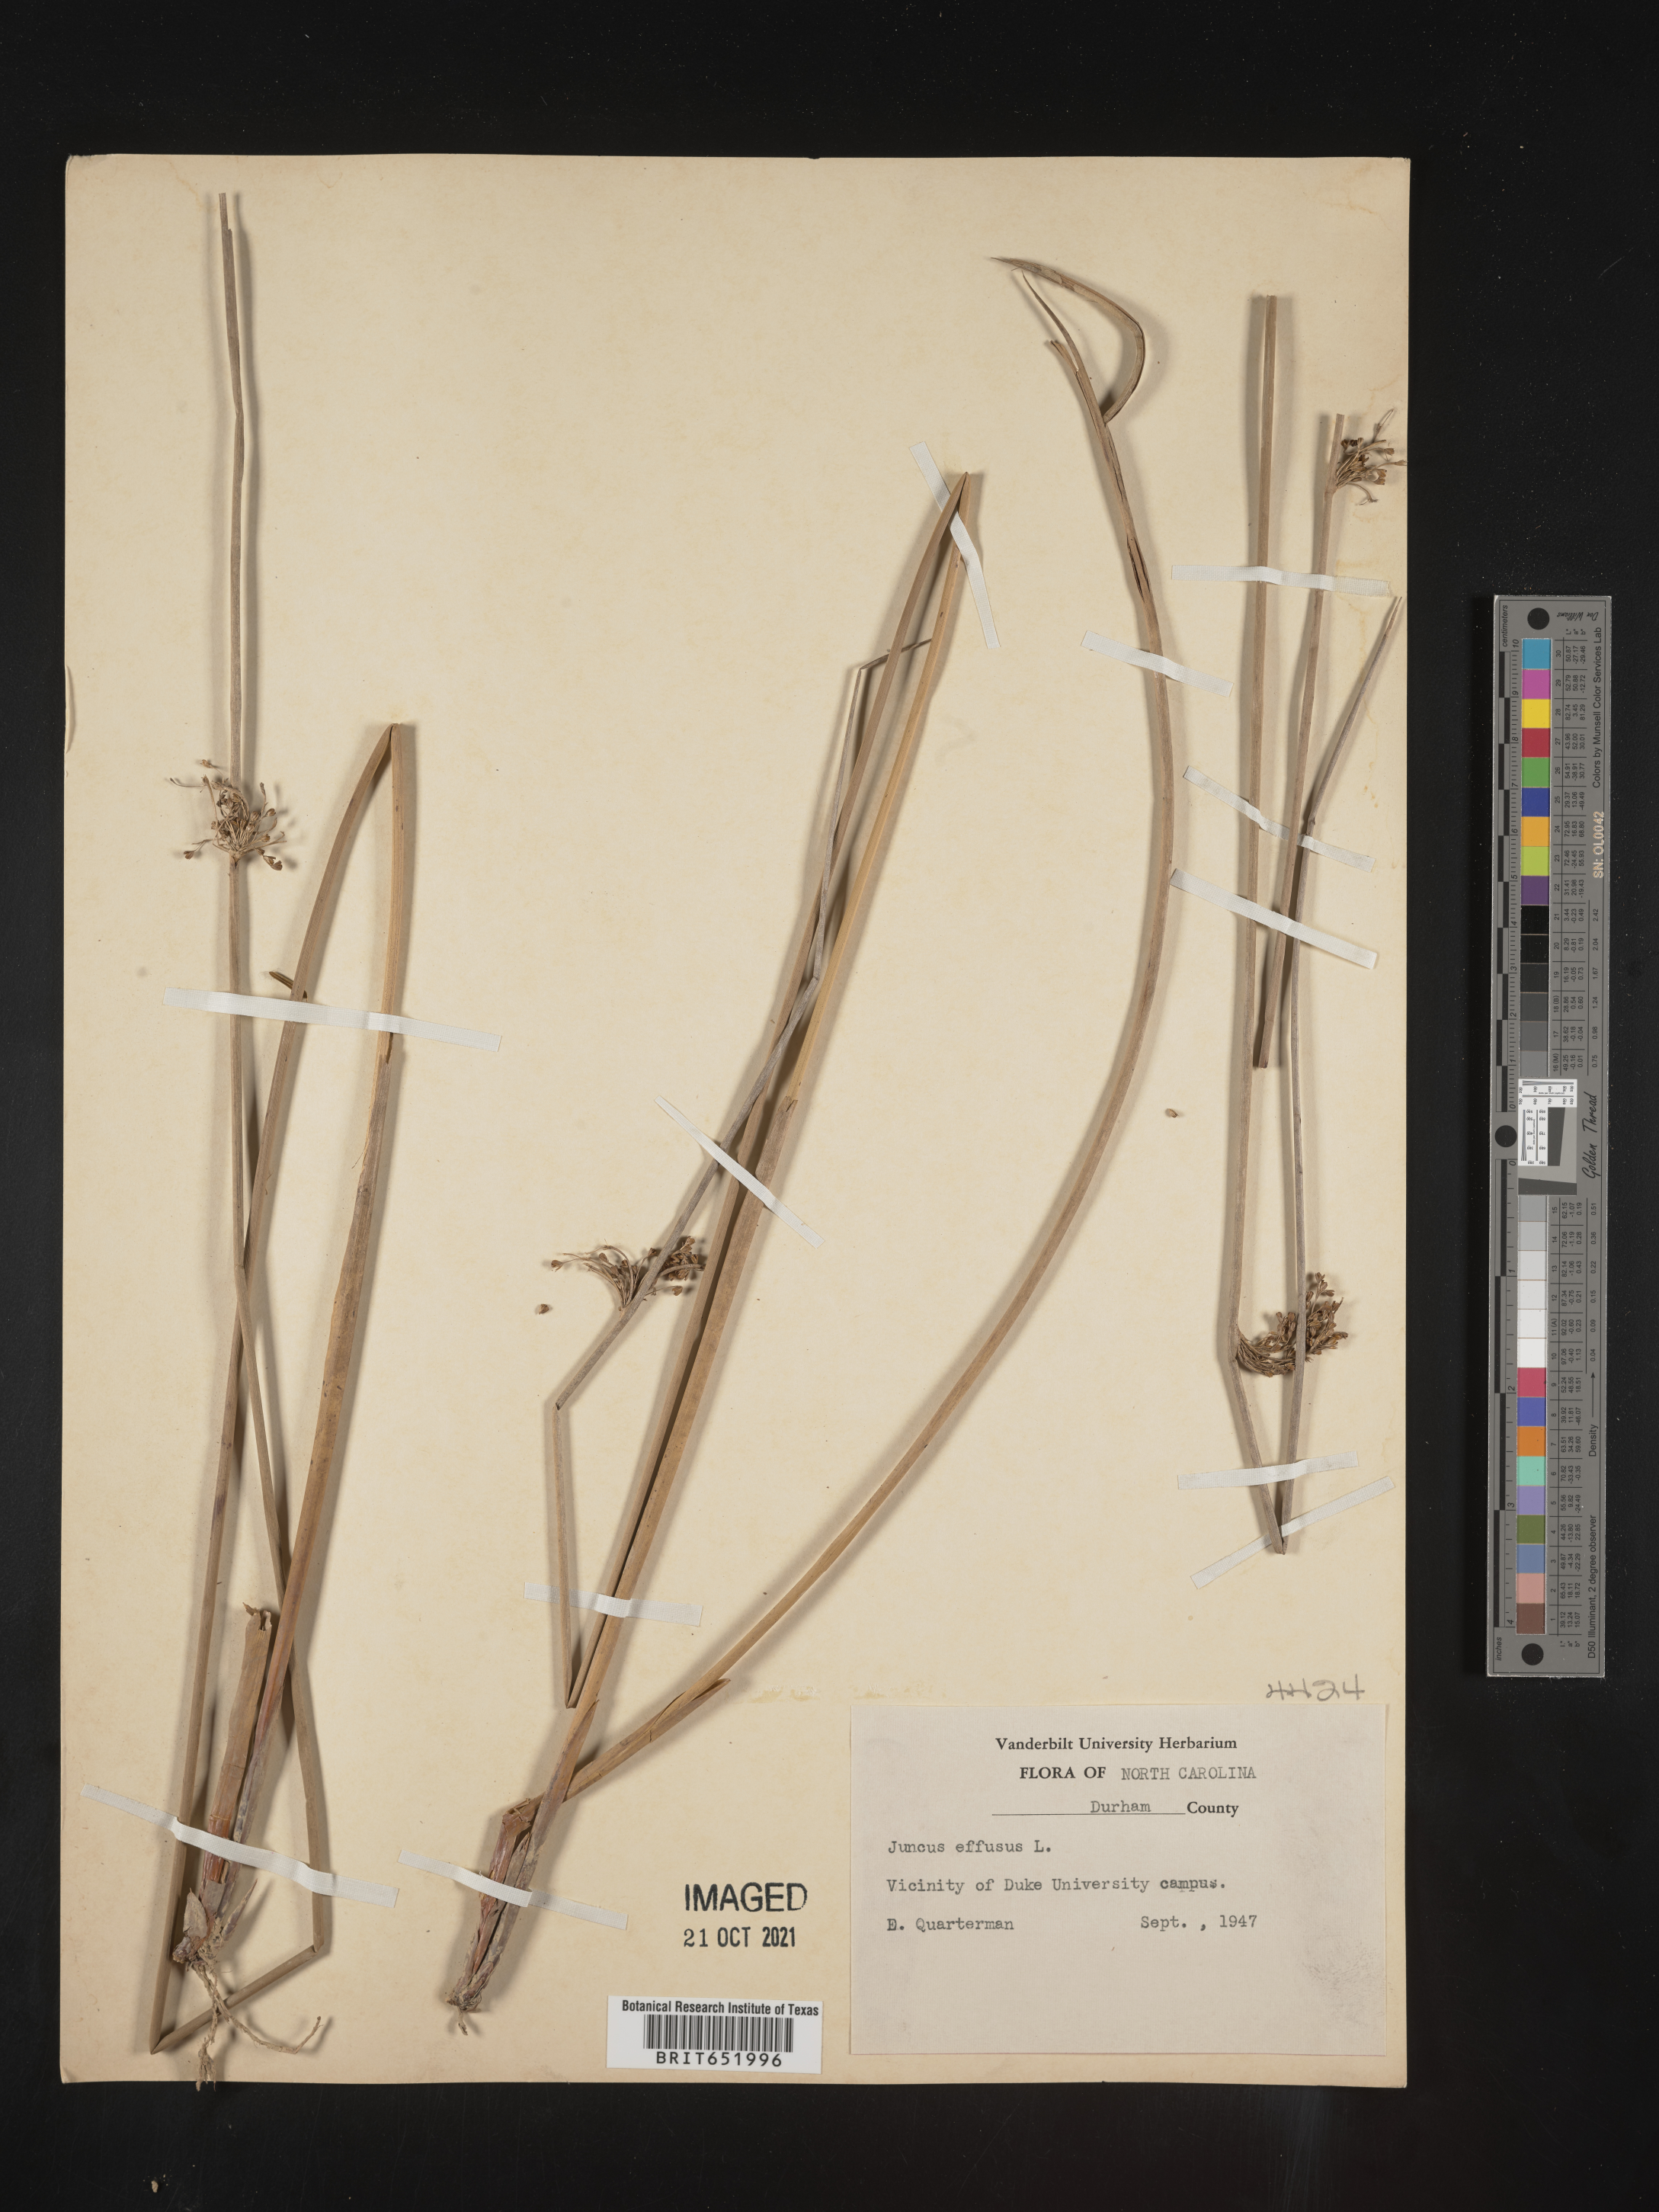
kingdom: Plantae
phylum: Tracheophyta
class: Liliopsida
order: Poales
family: Juncaceae
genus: Juncus
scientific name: Juncus effusus
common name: Soft rush
